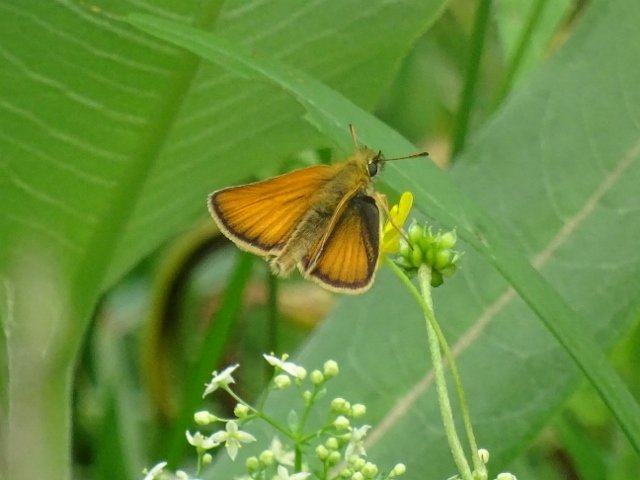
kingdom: Animalia
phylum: Arthropoda
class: Insecta
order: Lepidoptera
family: Hesperiidae
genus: Thymelicus
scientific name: Thymelicus lineola
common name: European Skipper
